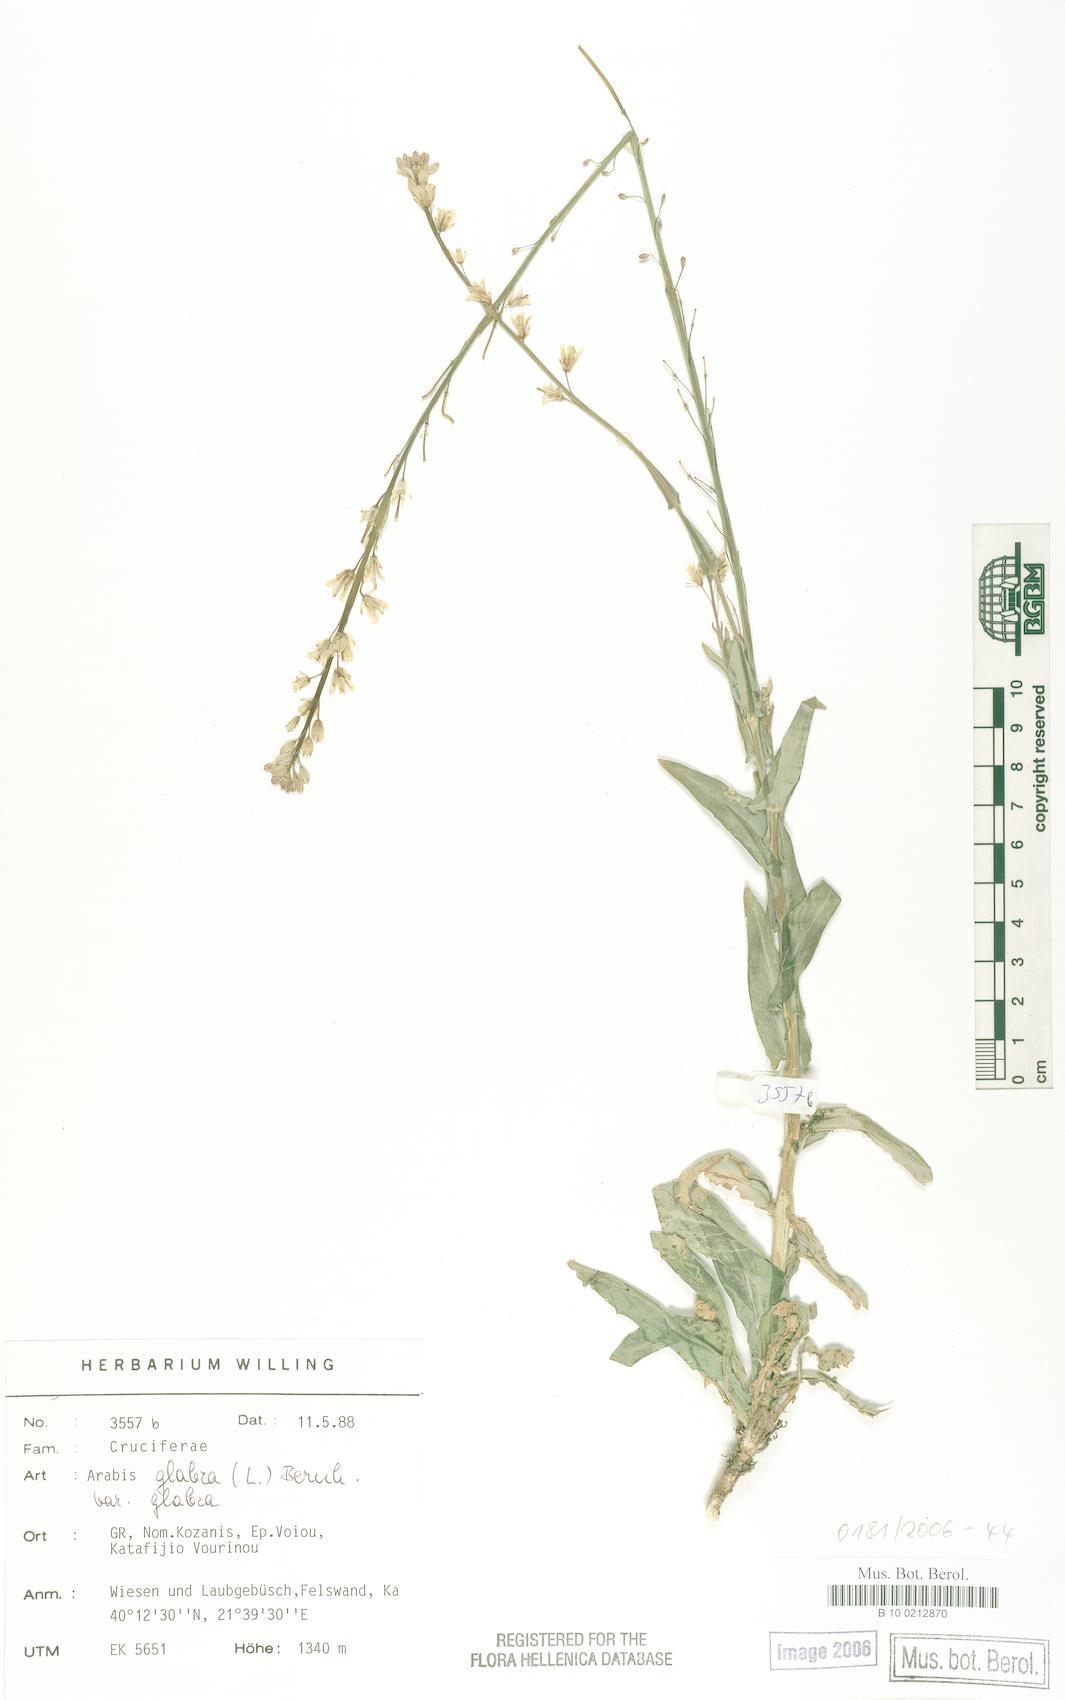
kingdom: Plantae
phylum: Tracheophyta
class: Magnoliopsida
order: Brassicales
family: Brassicaceae
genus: Turritis
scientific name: Turritis glabra
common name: Tower rockcress
